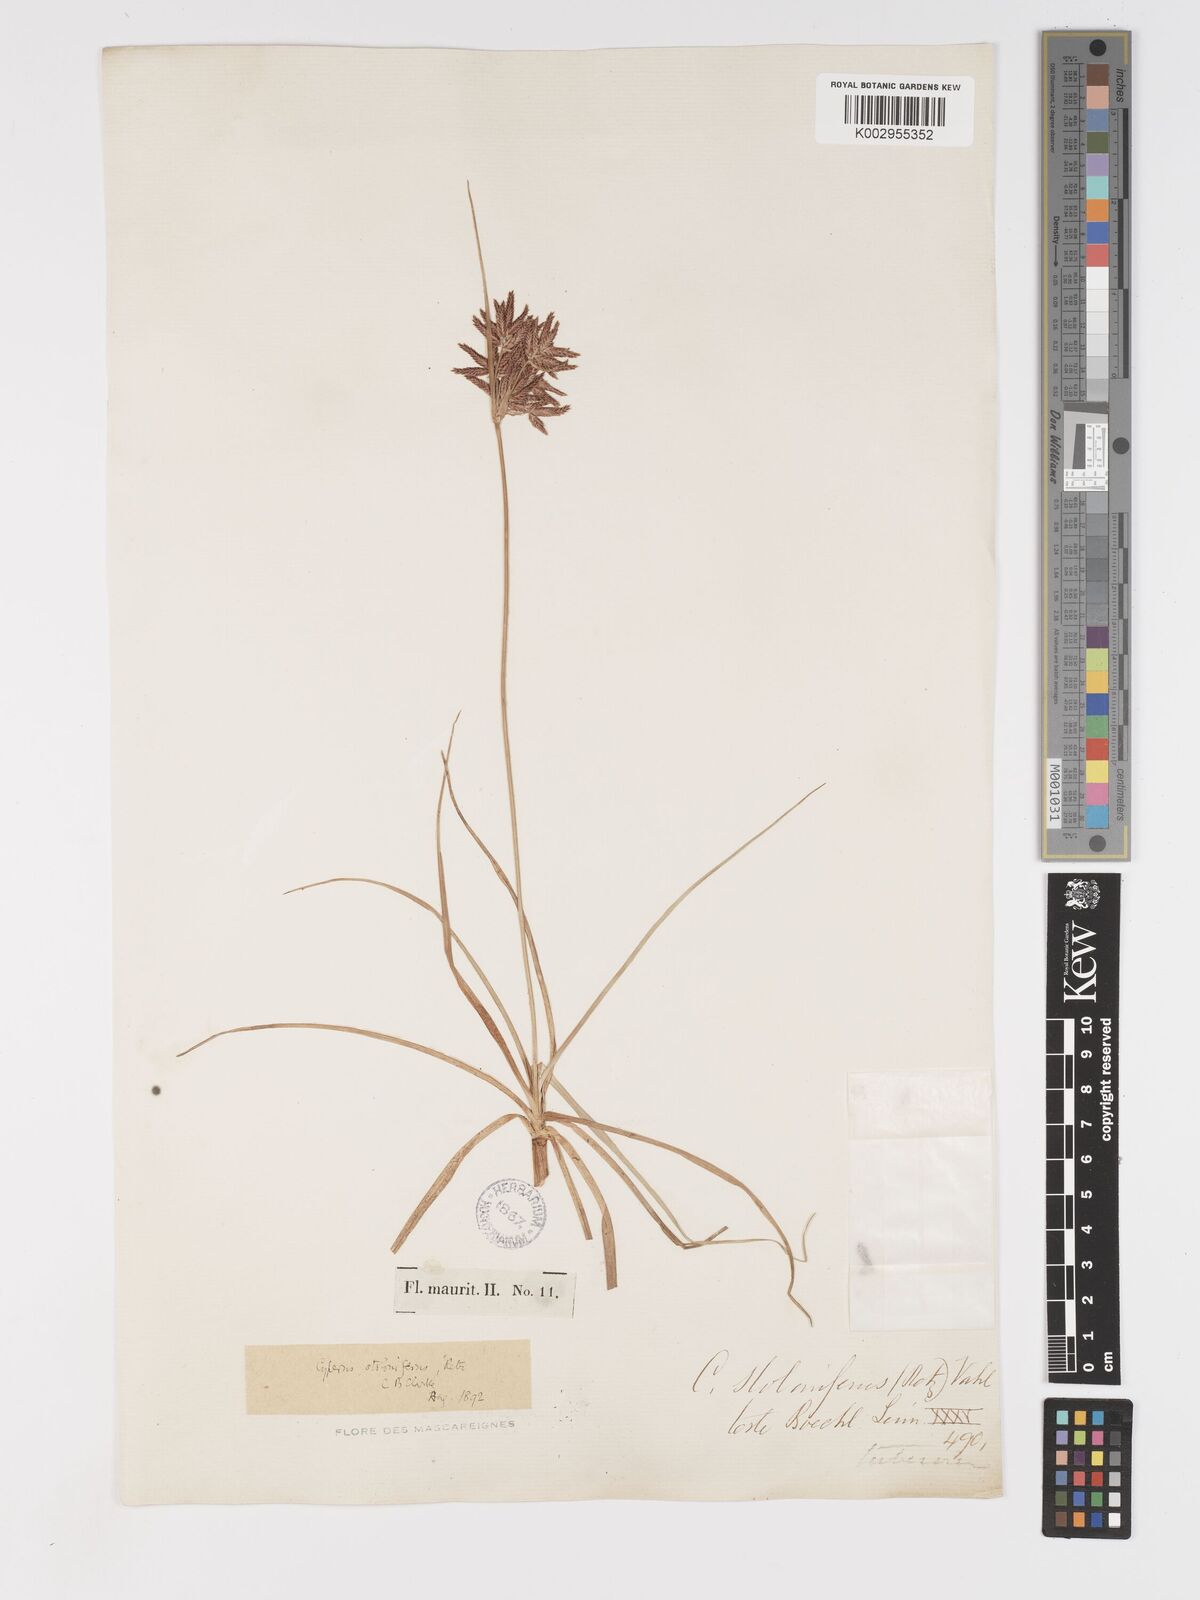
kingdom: Plantae
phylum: Tracheophyta
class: Liliopsida
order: Poales
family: Cyperaceae
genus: Cyperus
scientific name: Cyperus bulbosus
